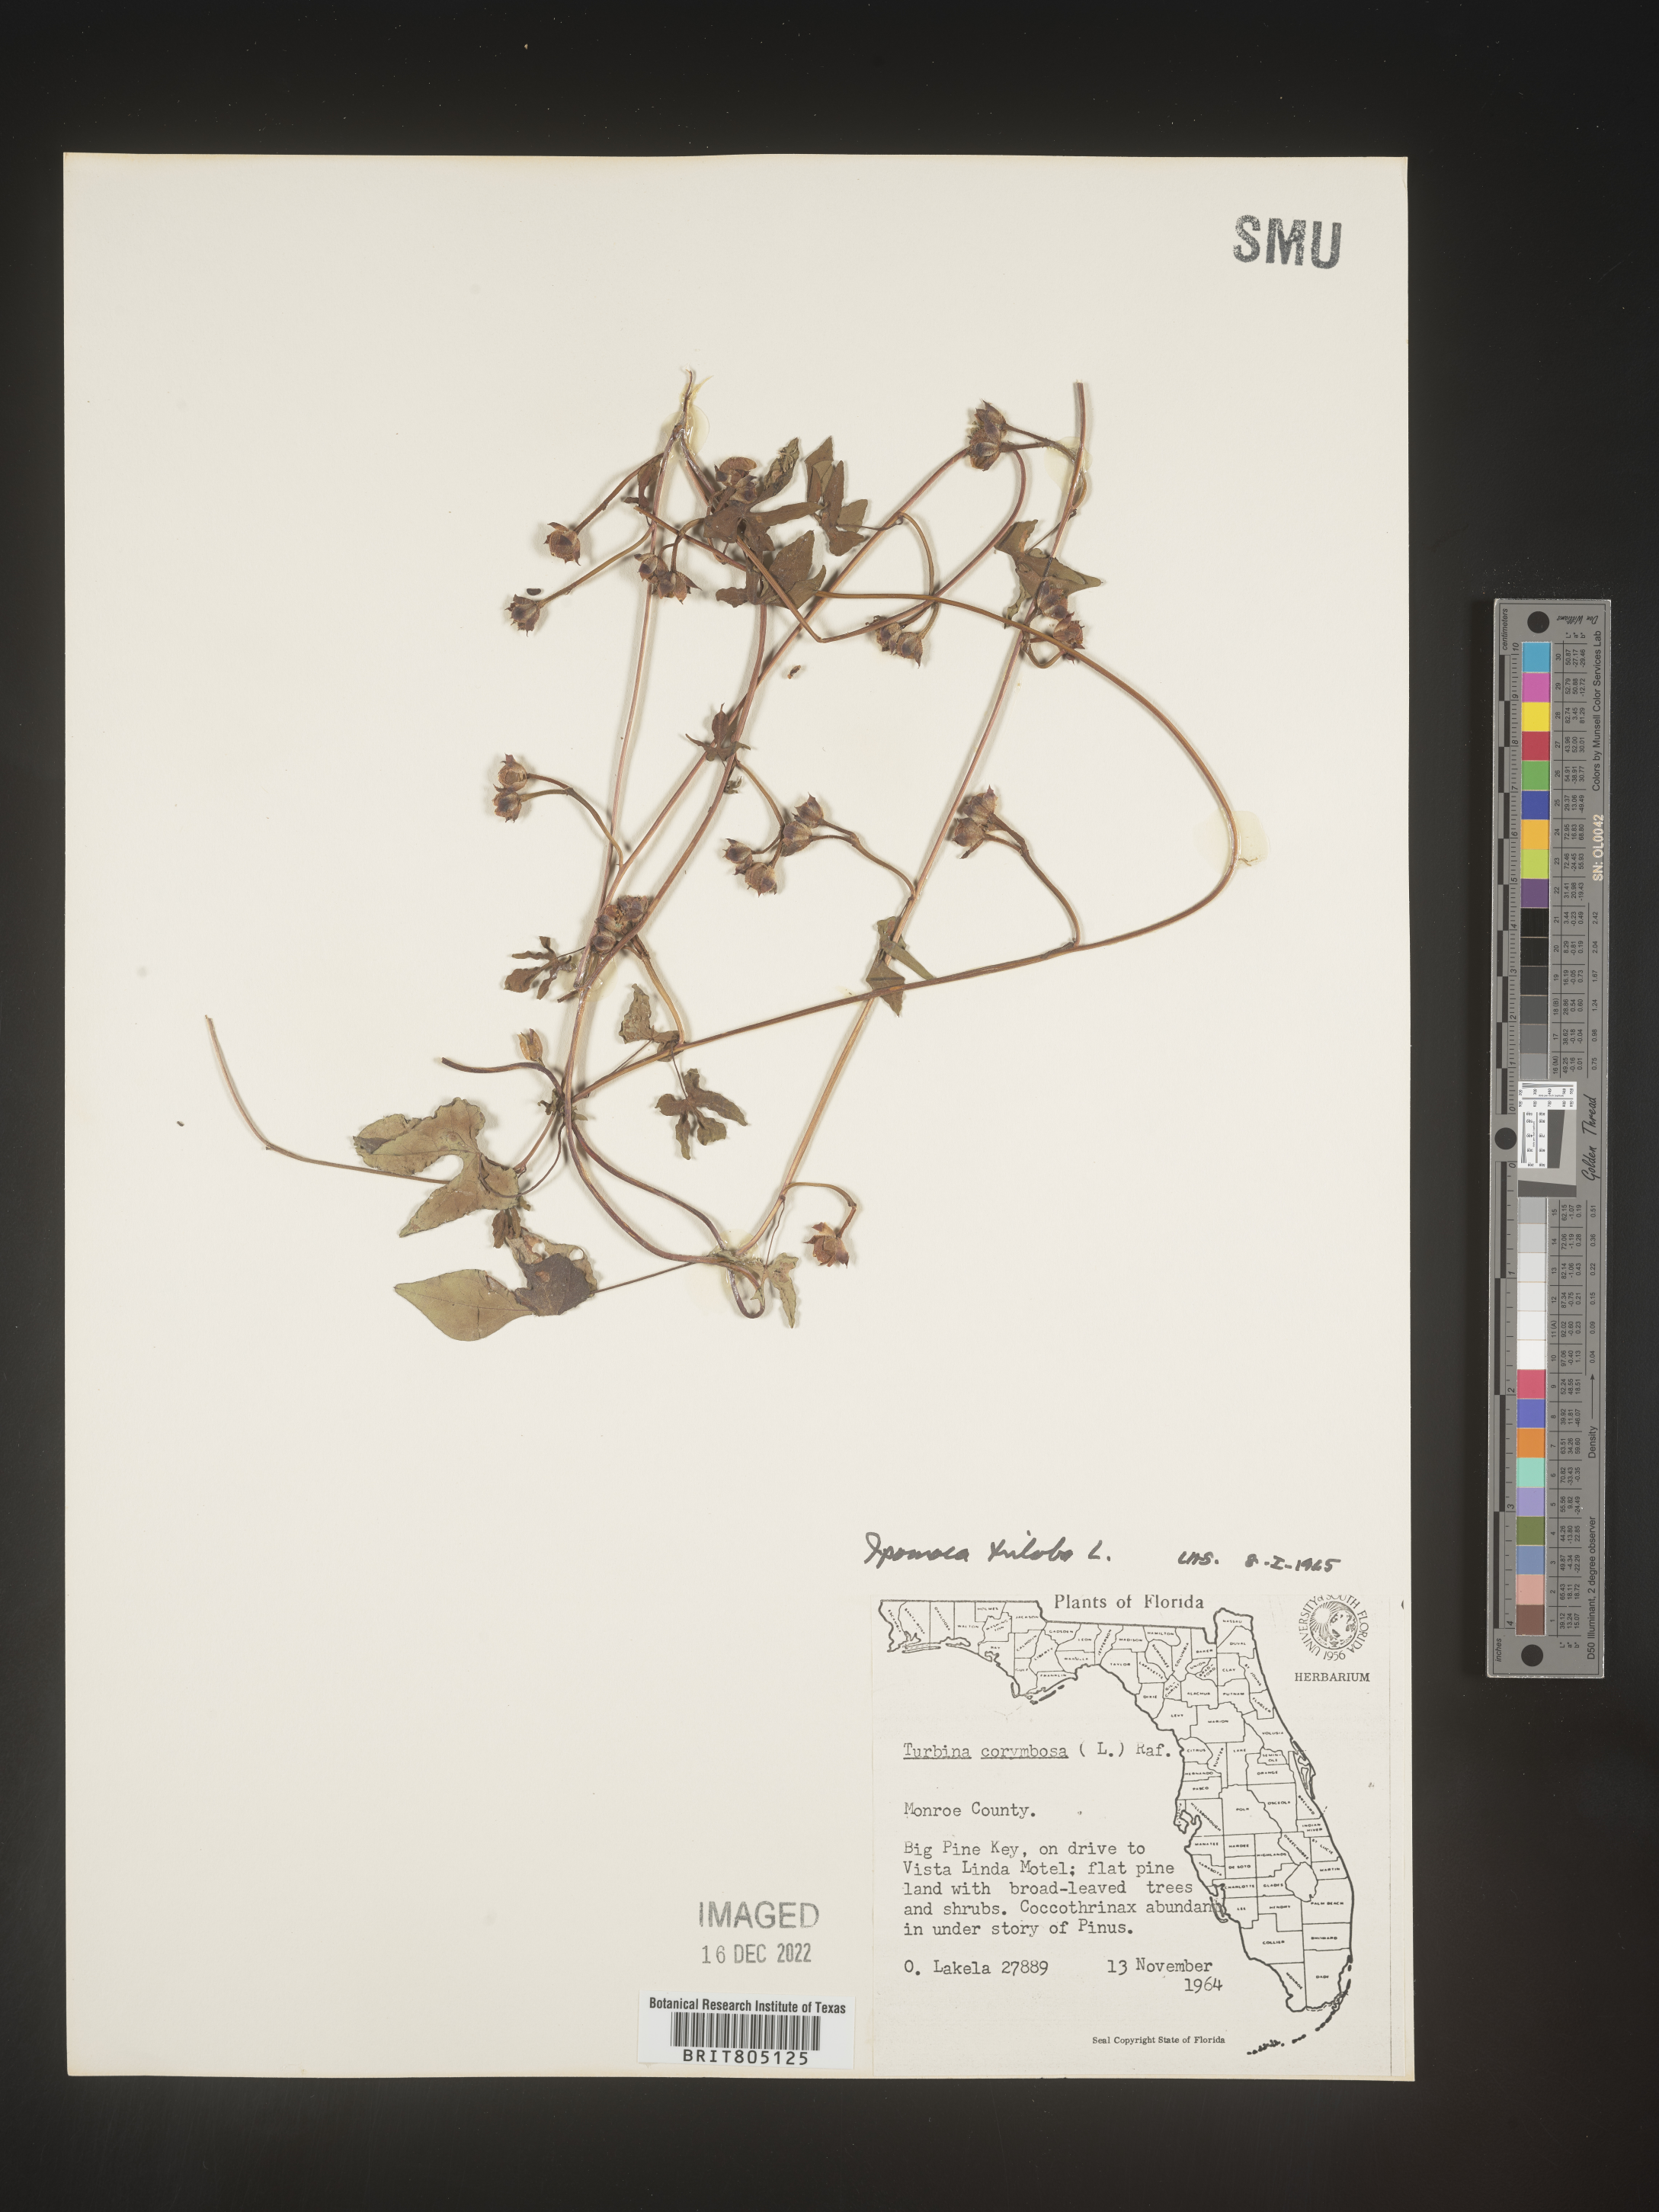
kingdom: Plantae
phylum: Tracheophyta
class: Magnoliopsida
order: Solanales
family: Convolvulaceae
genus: Ipomoea
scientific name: Ipomoea triloba
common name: Little-bell
